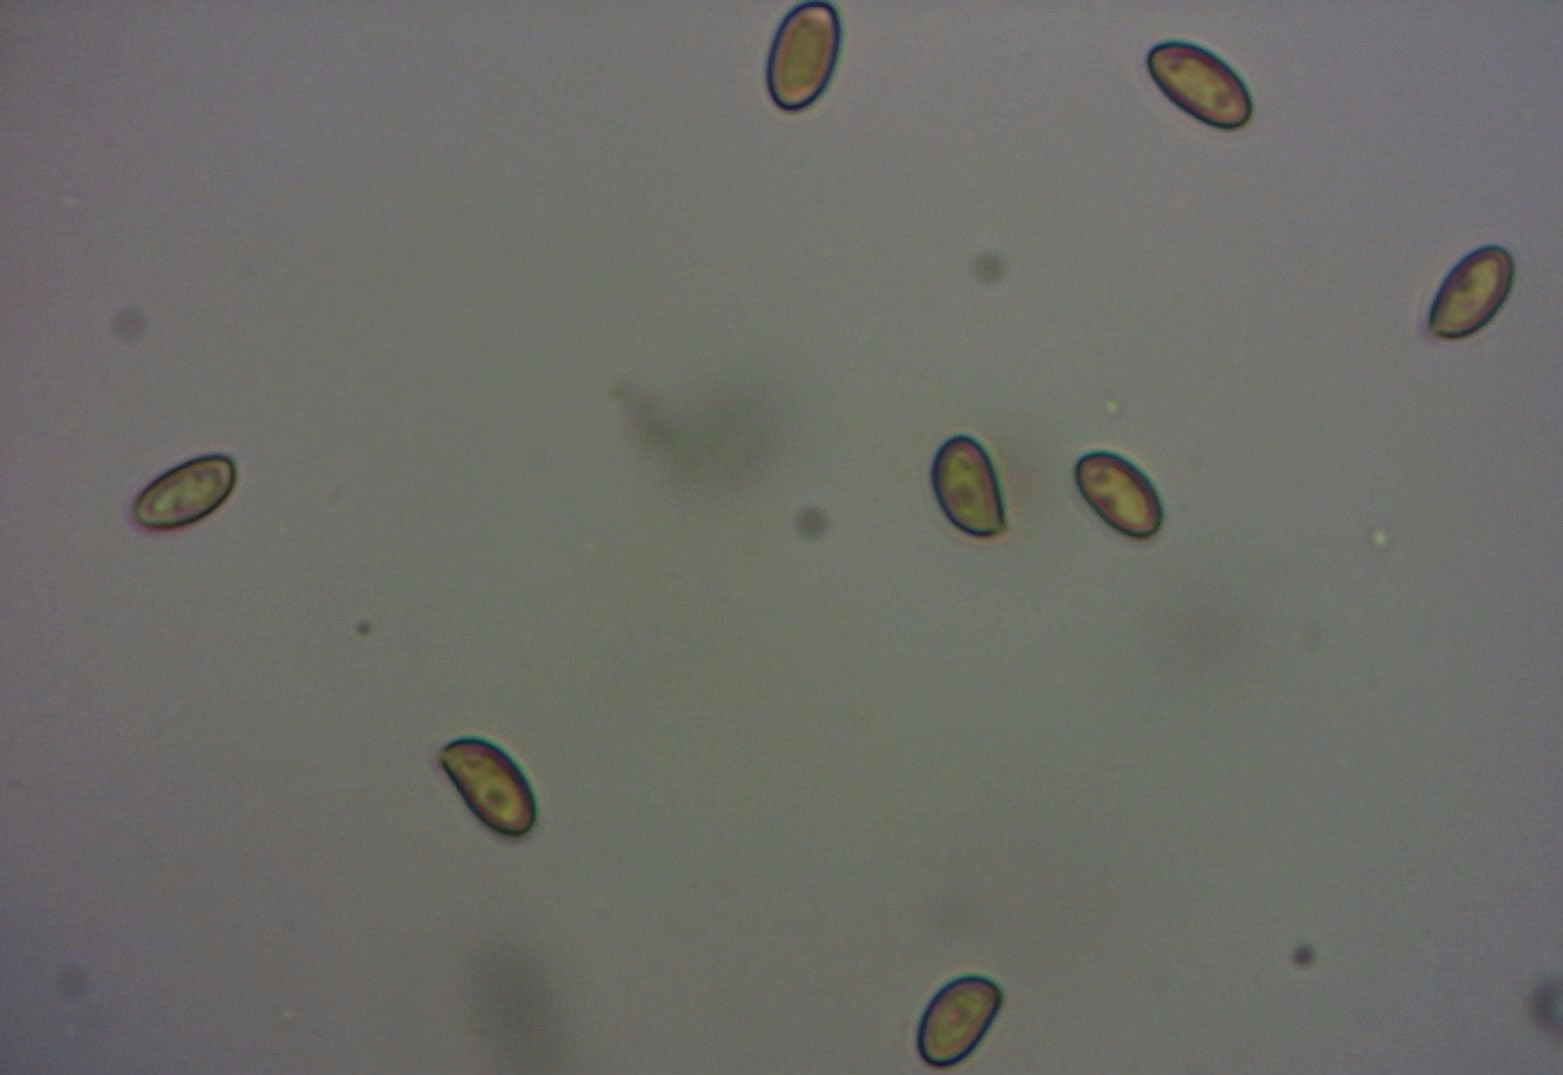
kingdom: Fungi
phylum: Basidiomycota
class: Agaricomycetes
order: Agaricales
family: Inocybaceae
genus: Inocybe
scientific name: Inocybe
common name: almindelig trævlhat
